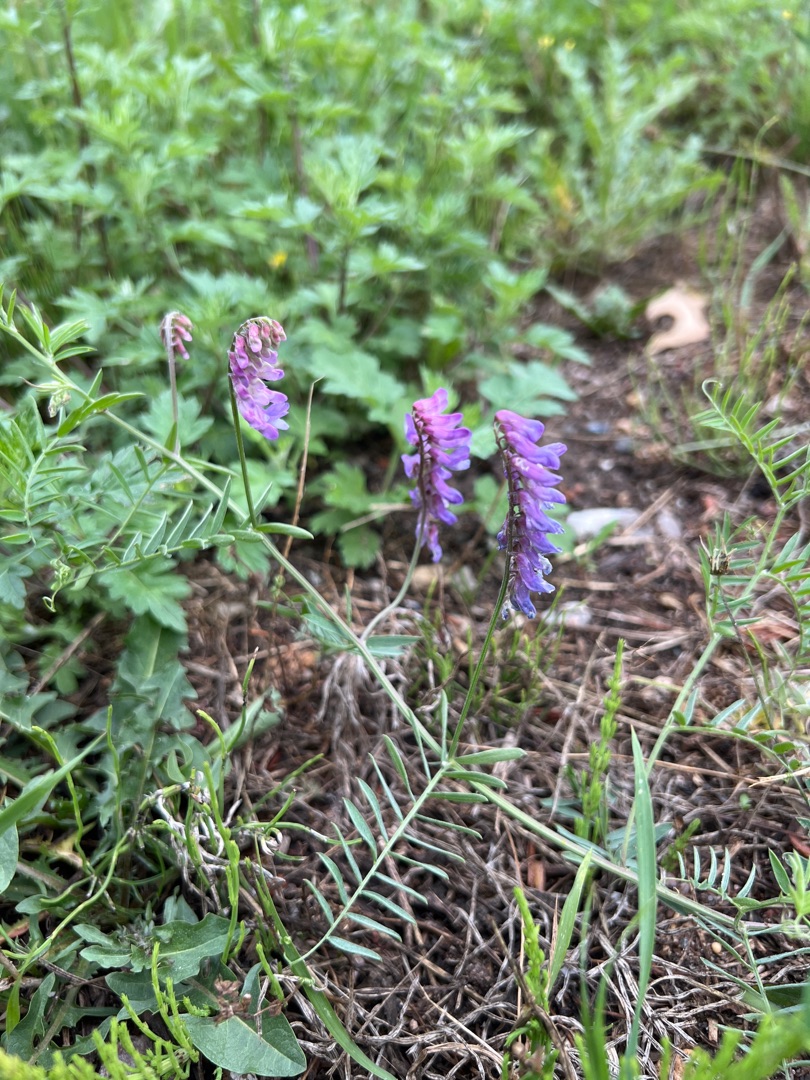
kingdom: Plantae
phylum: Tracheophyta
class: Magnoliopsida
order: Fabales
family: Fabaceae
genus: Vicia
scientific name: Vicia cracca
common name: Muse-vikke
